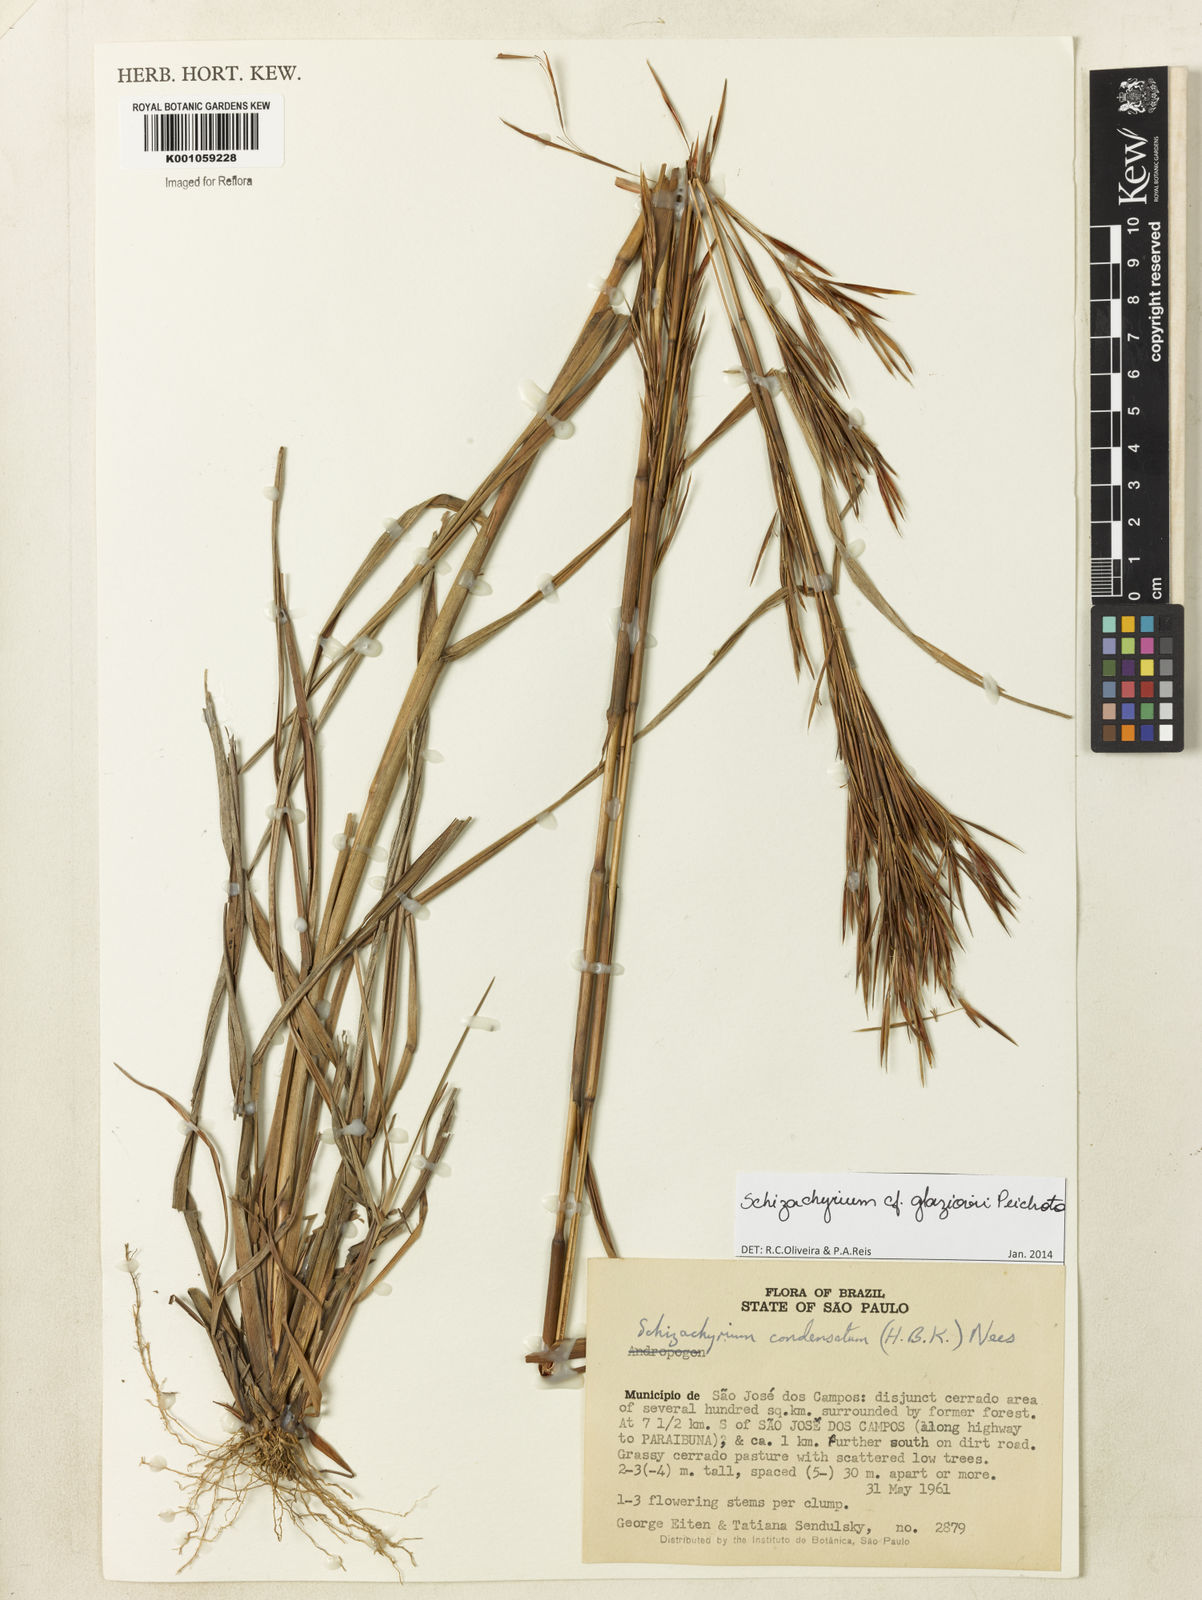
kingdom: Plantae
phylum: Tracheophyta
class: Liliopsida
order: Poales
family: Poaceae
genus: Schizachyrium
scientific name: Schizachyrium glaziovii
